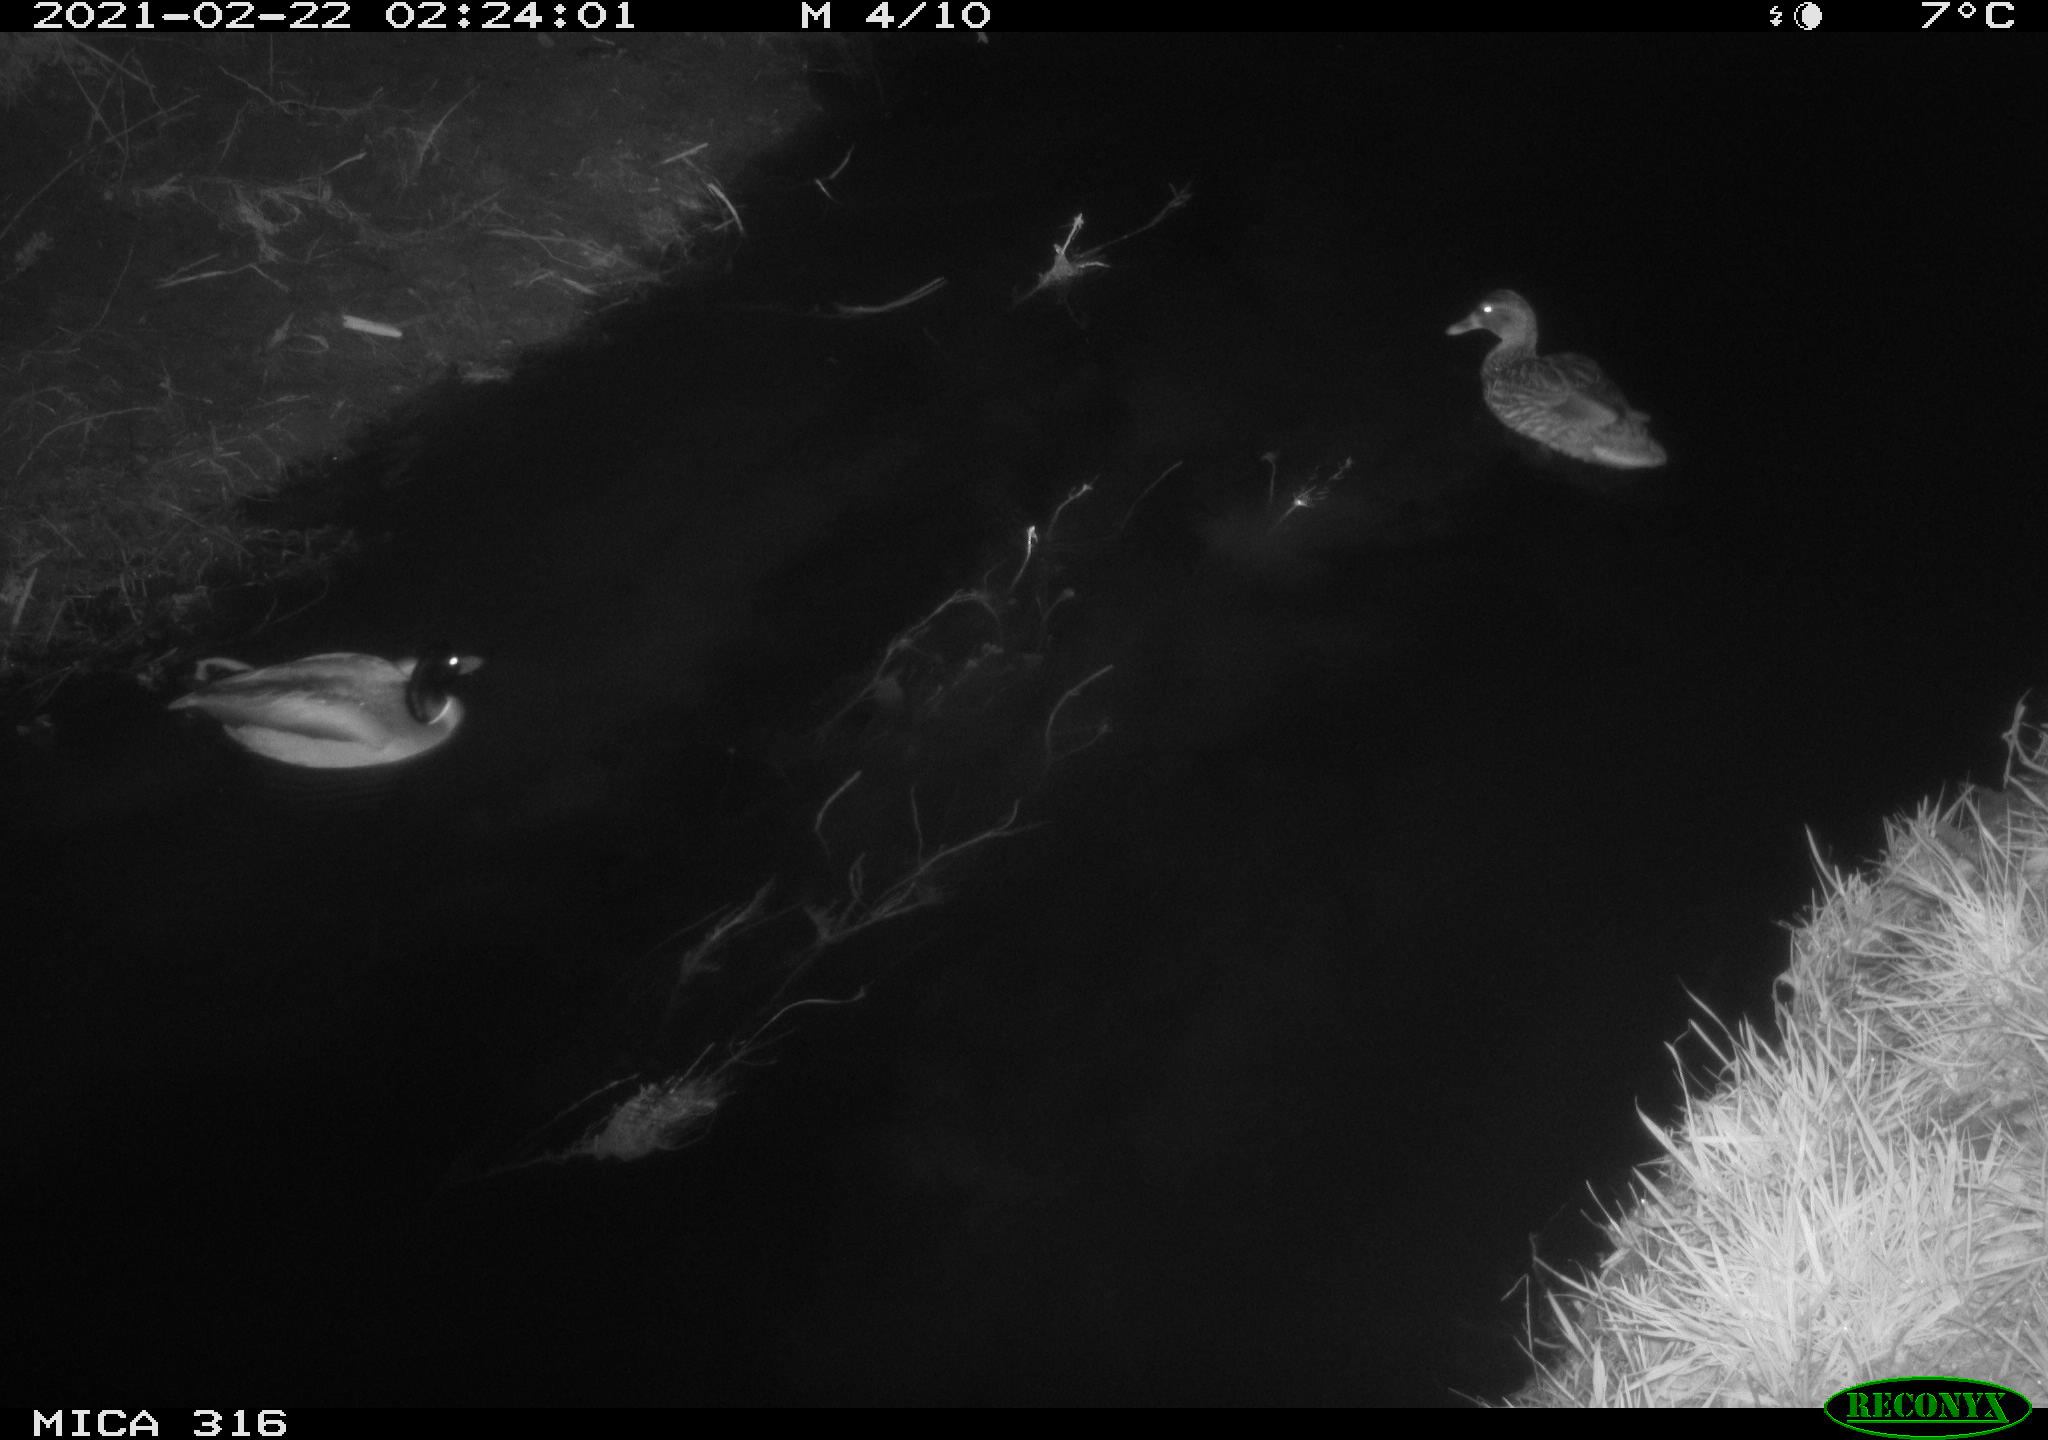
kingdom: Animalia
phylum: Chordata
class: Aves
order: Anseriformes
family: Anatidae
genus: Anas
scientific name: Anas platyrhynchos
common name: Mallard
